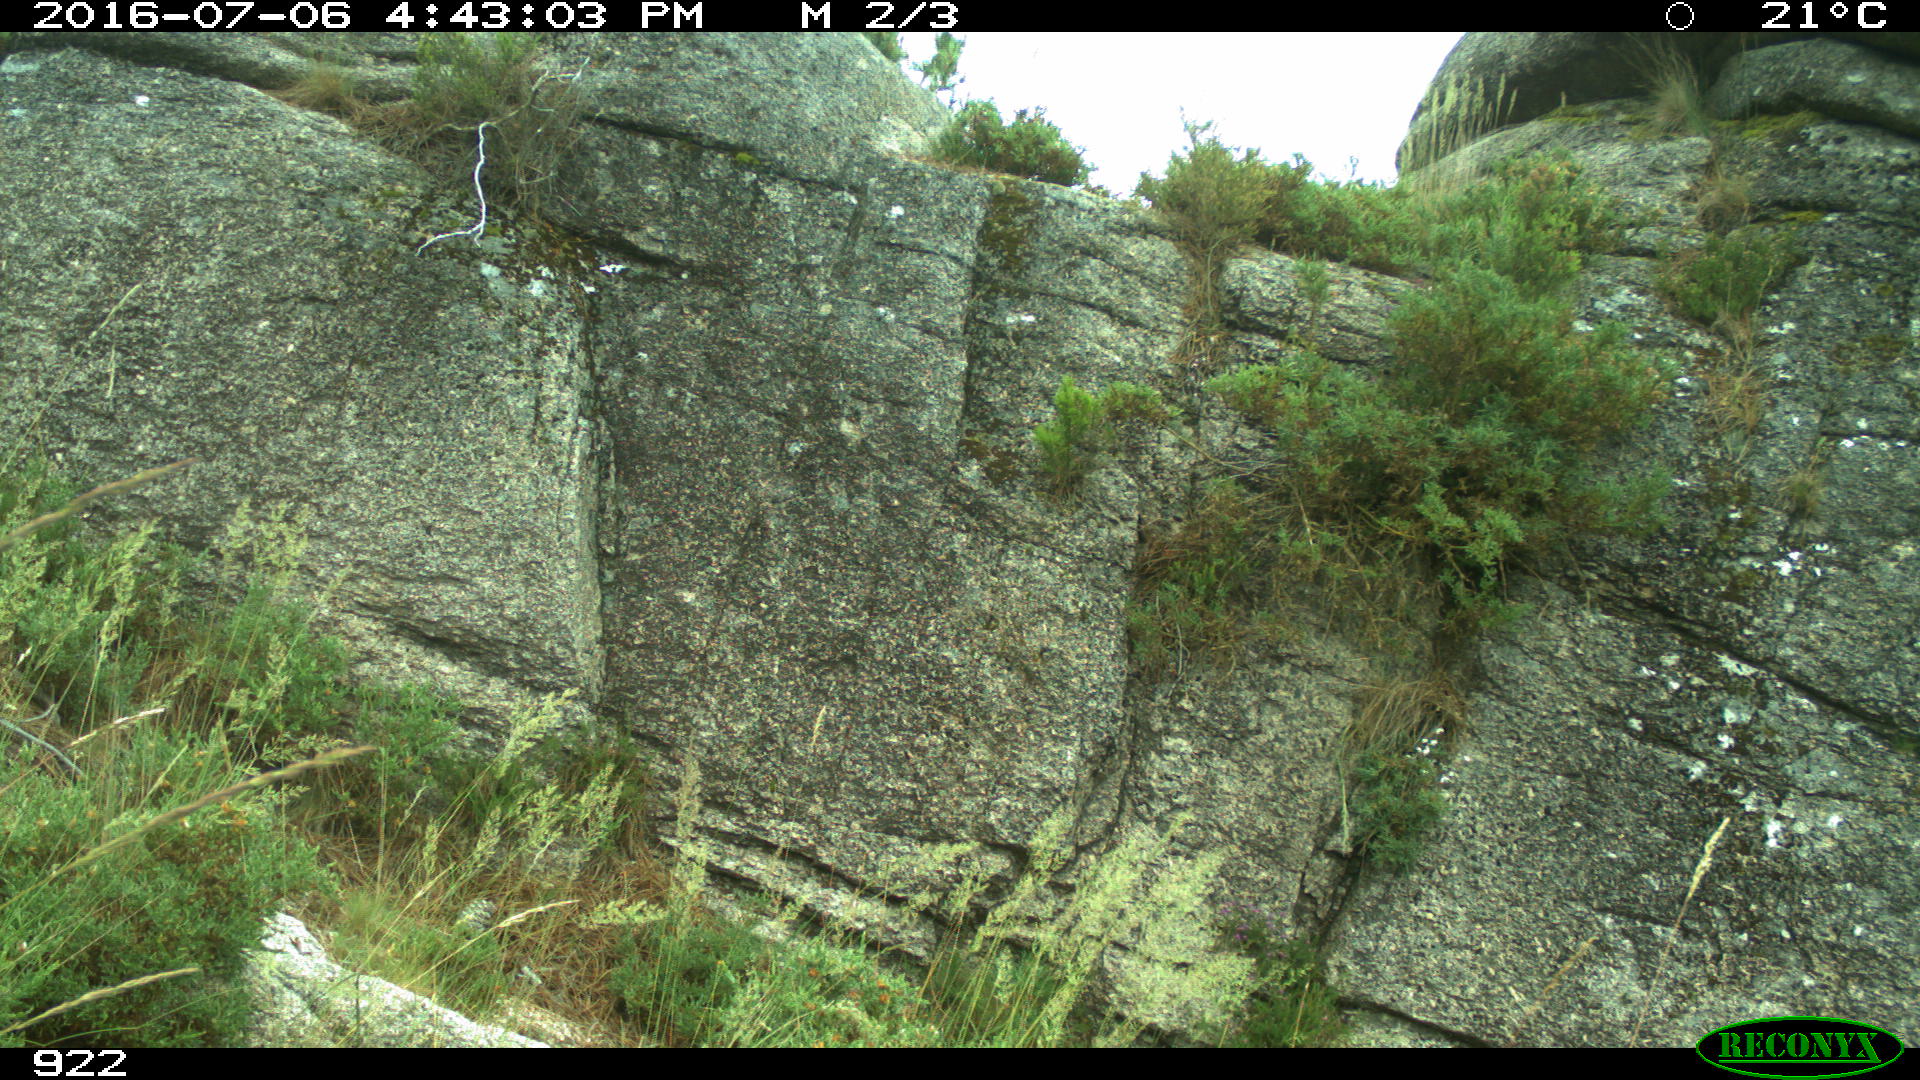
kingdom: Animalia
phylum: Chordata
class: Mammalia
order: Artiodactyla
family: Cervidae
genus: Capreolus
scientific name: Capreolus capreolus
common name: Western roe deer
